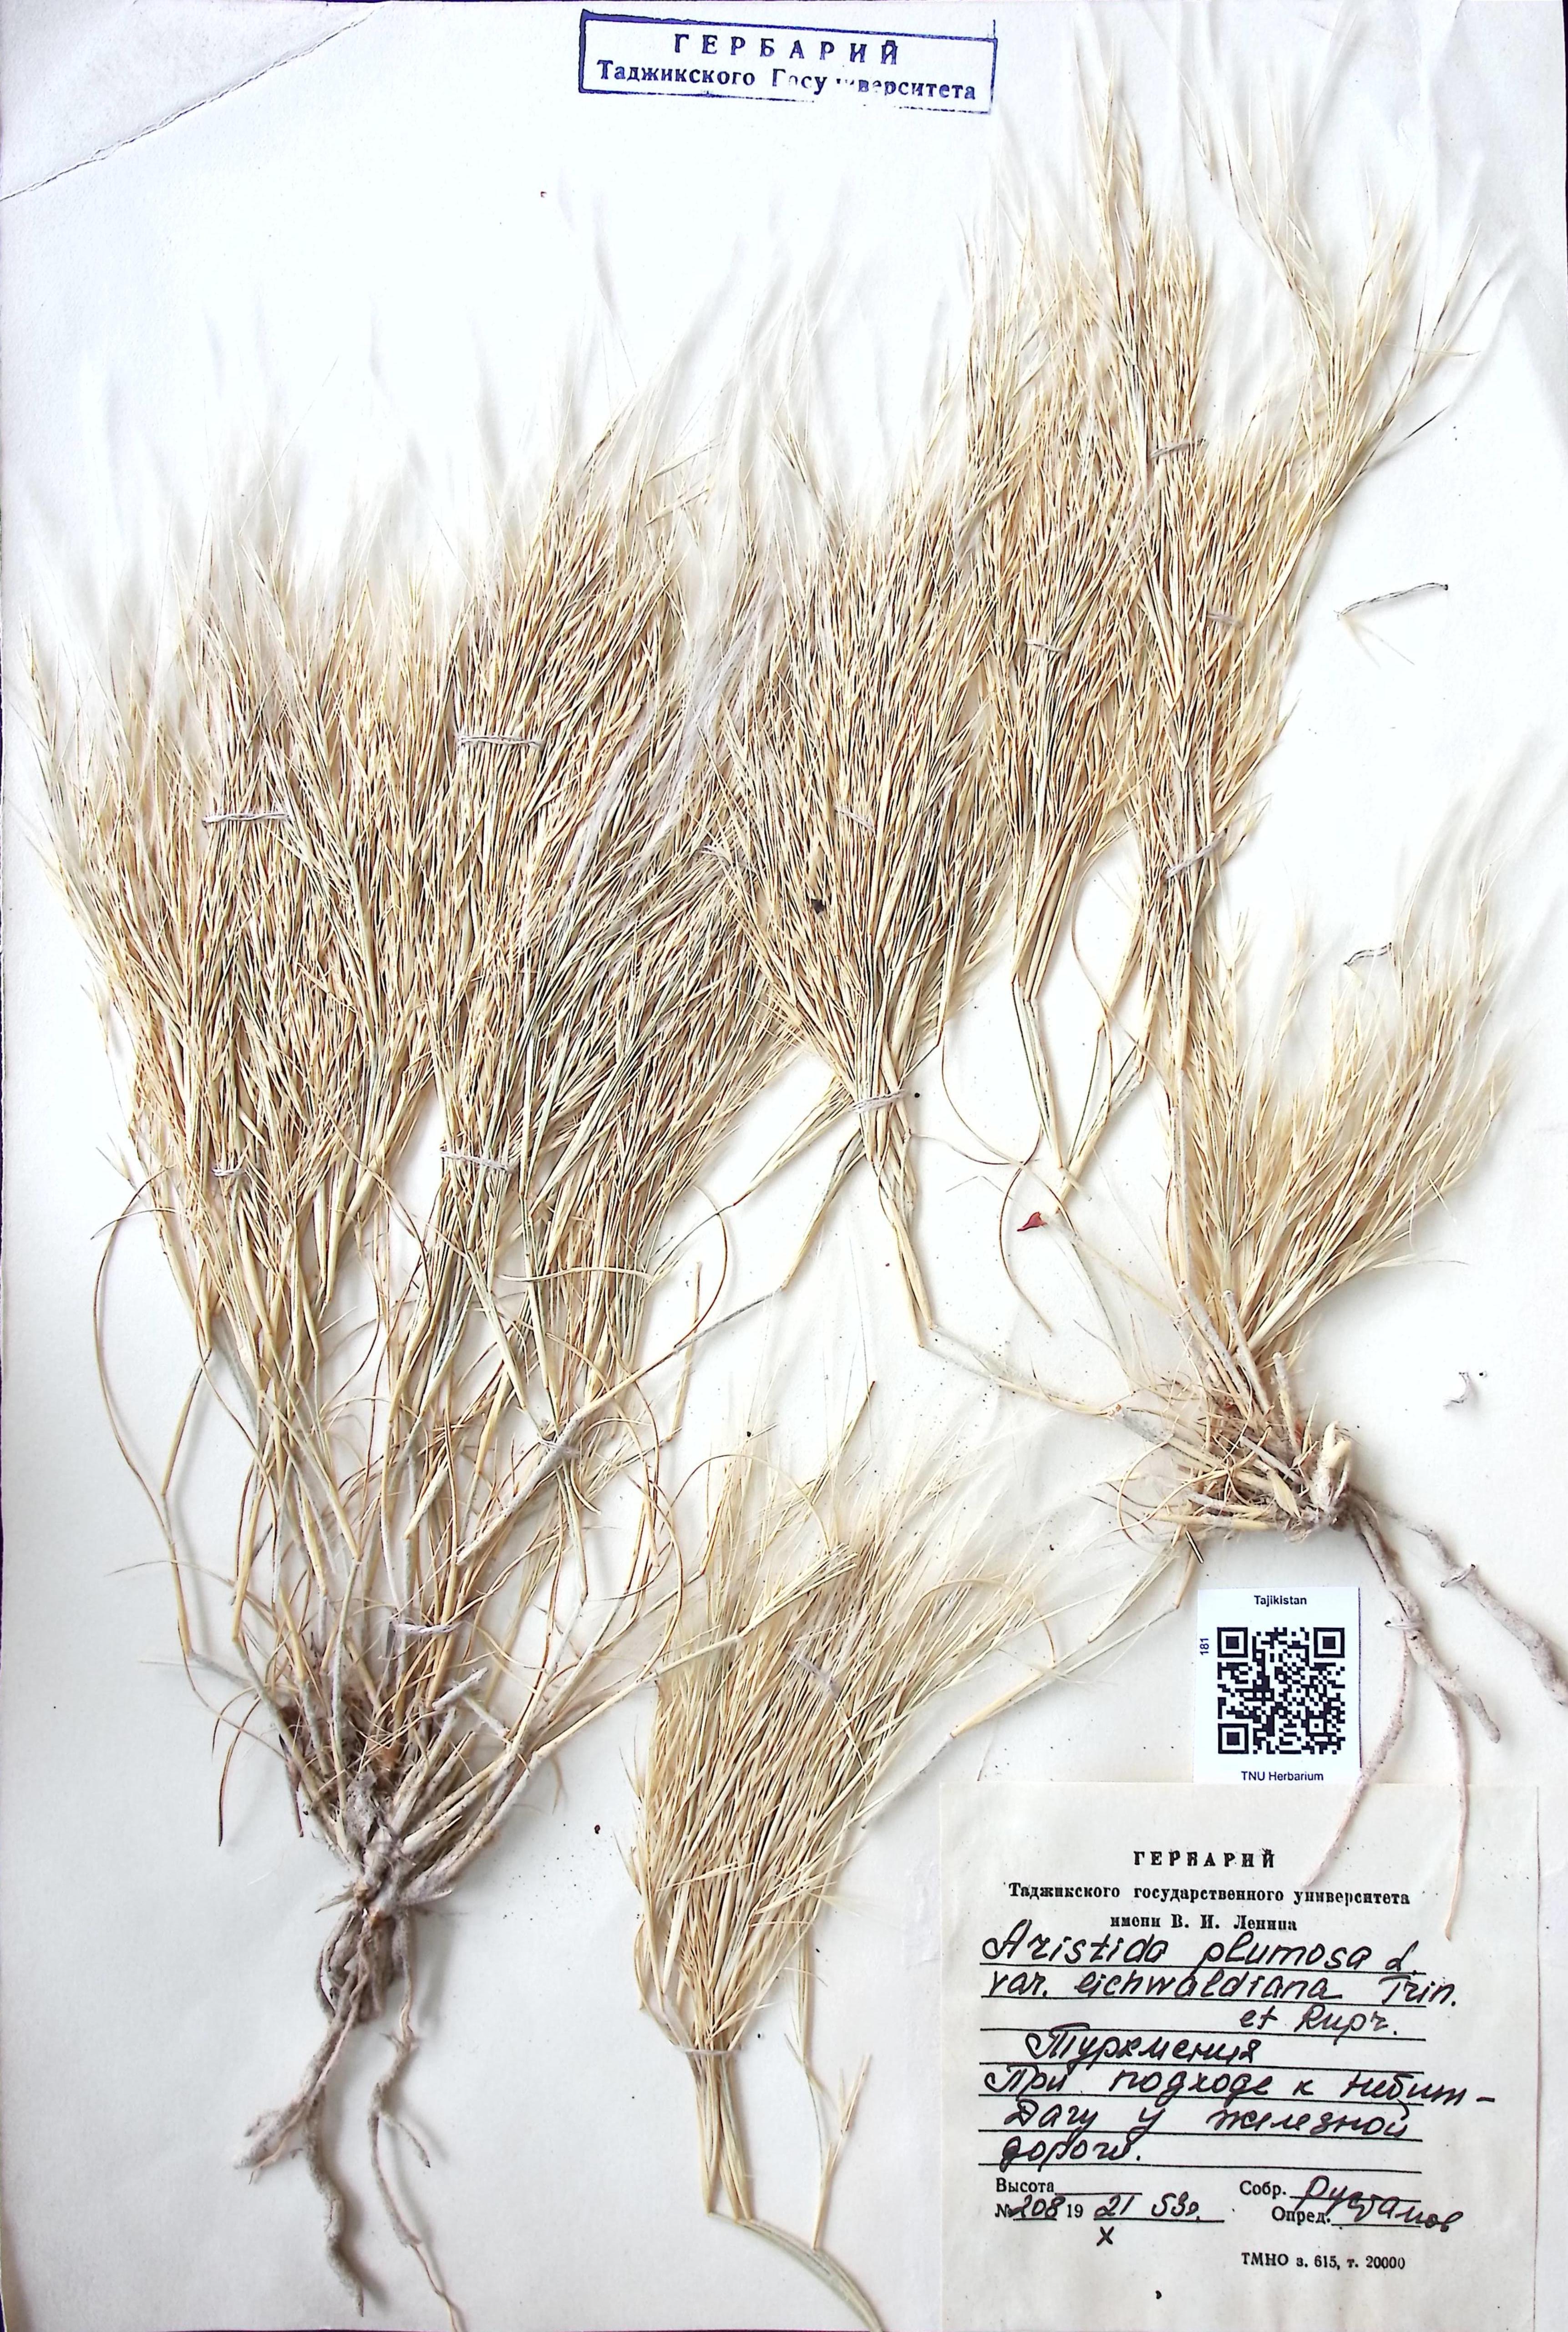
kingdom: Plantae
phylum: Tracheophyta
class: Liliopsida
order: Poales
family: Poaceae
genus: Aristida
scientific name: Aristida plumosa
